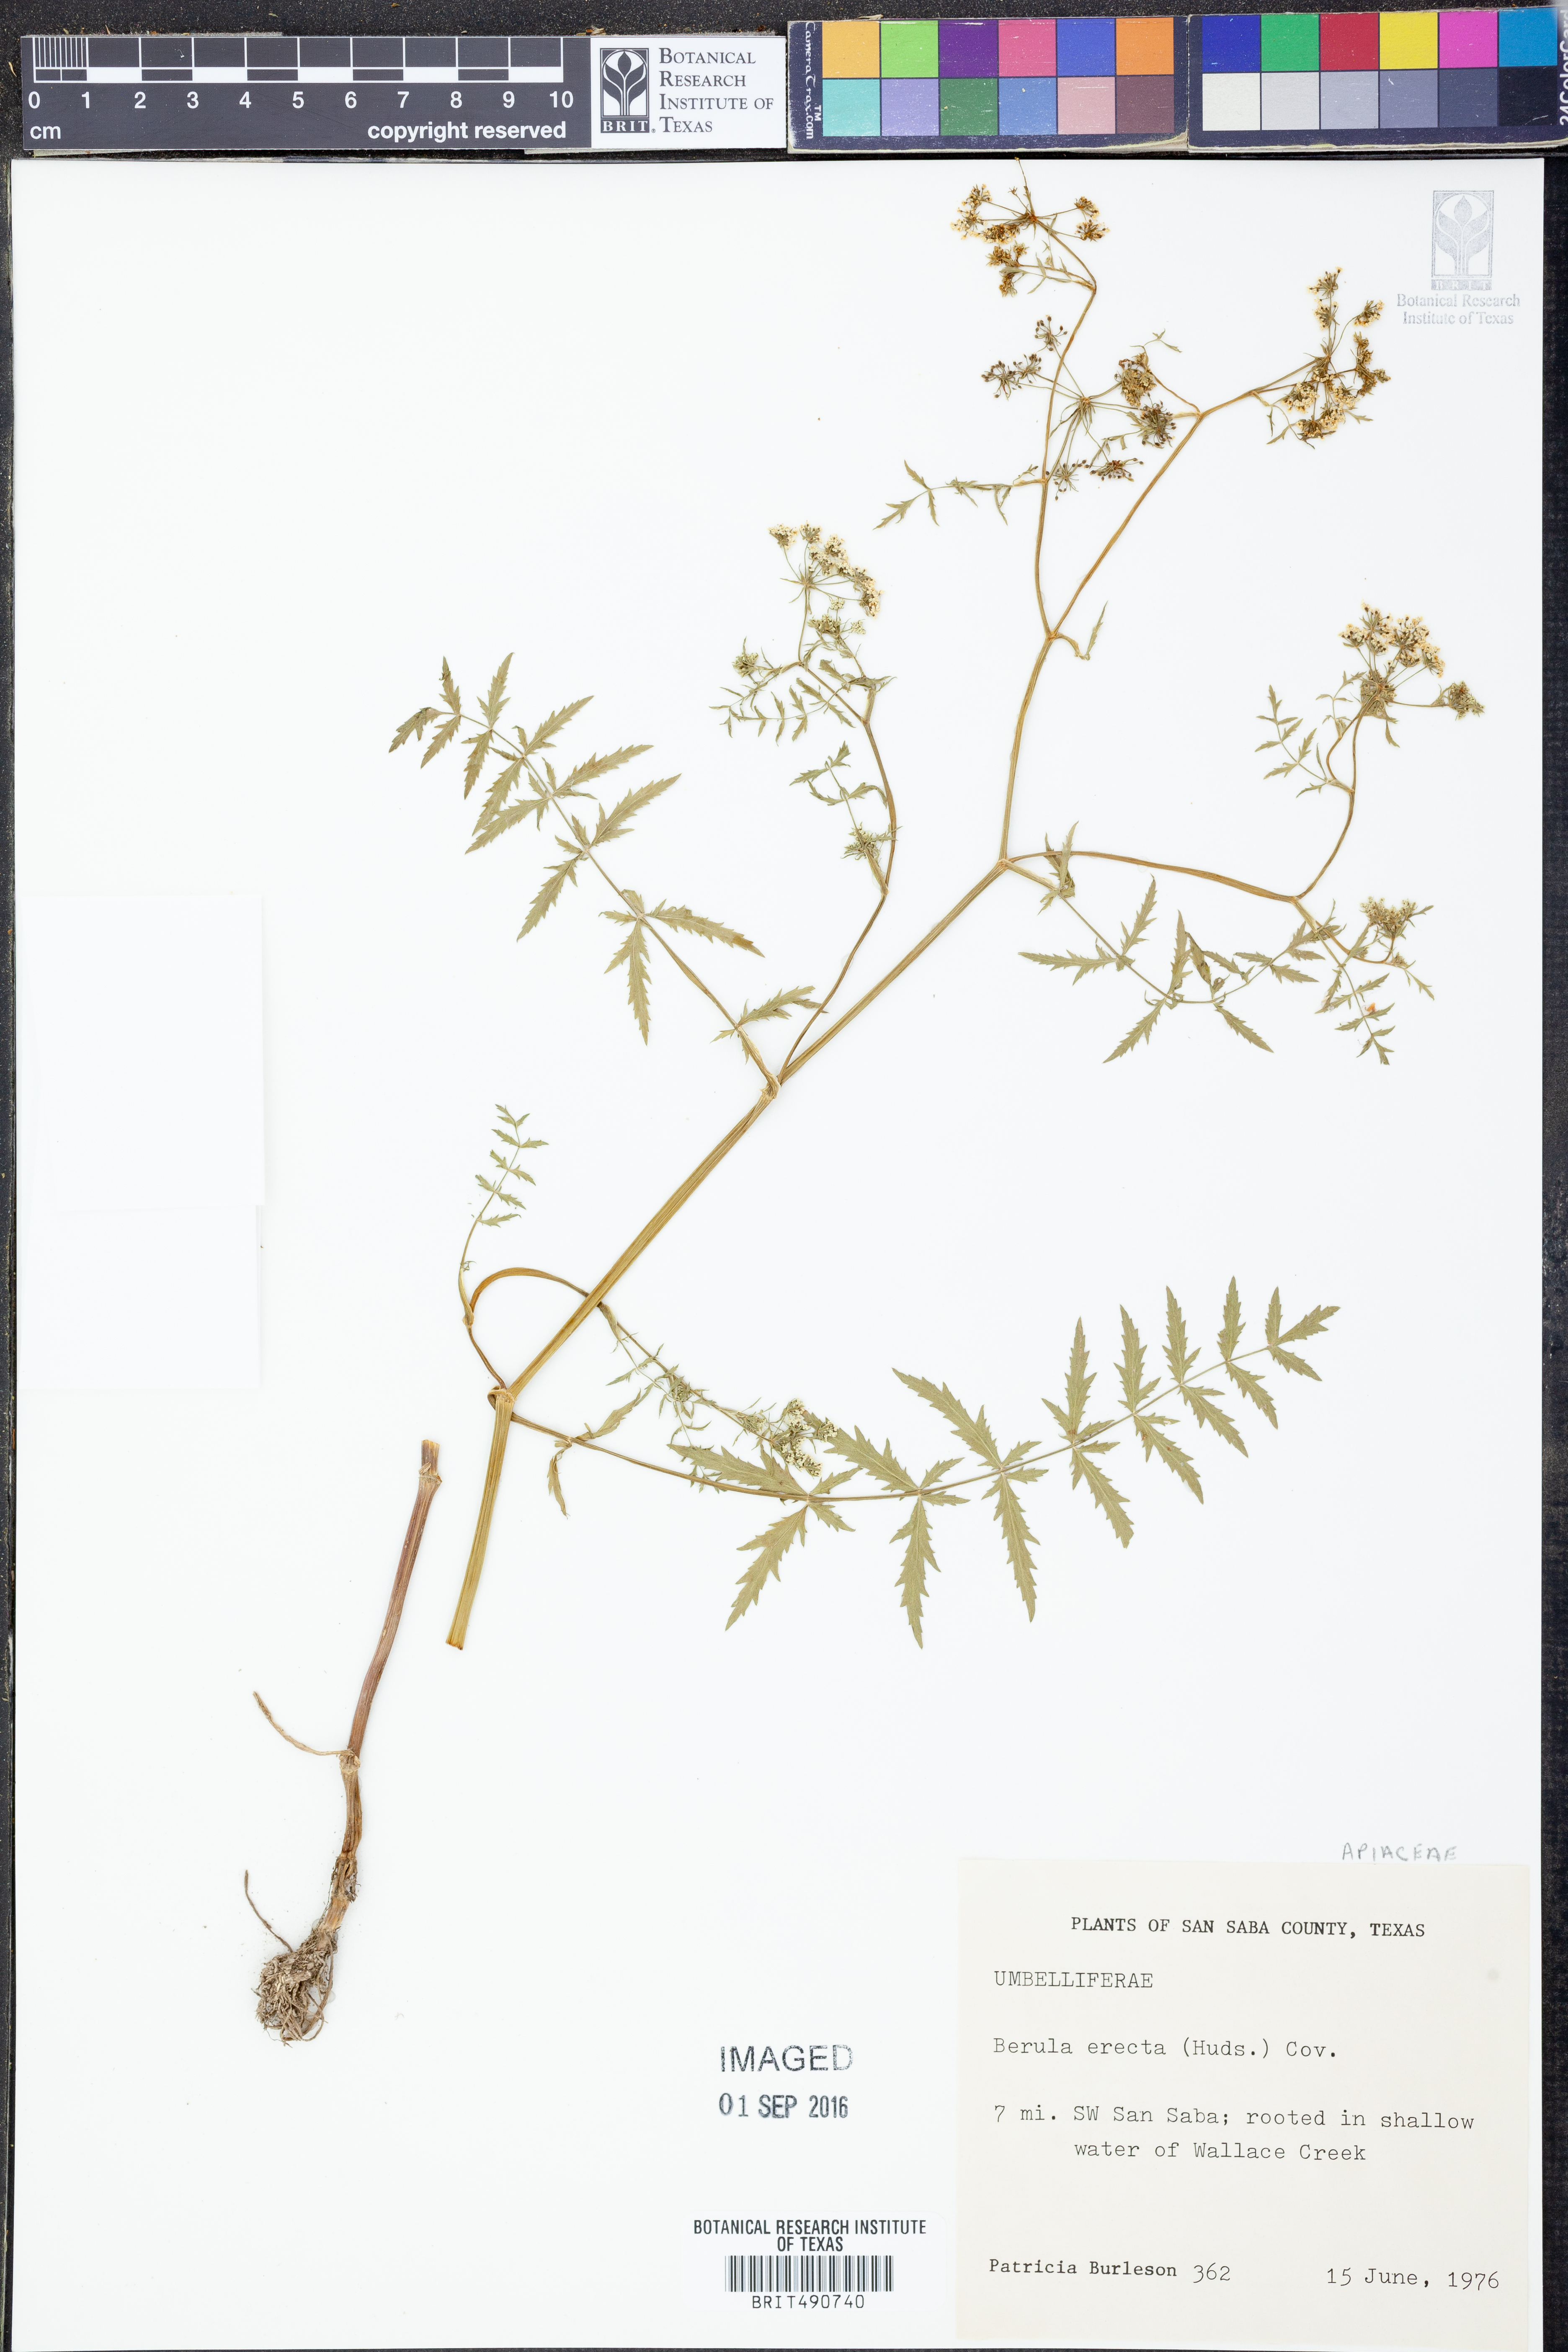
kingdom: Plantae
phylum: Tracheophyta
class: Magnoliopsida
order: Apiales
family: Apiaceae
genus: Berula
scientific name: Berula erecta
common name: Lesser water-parsnip
